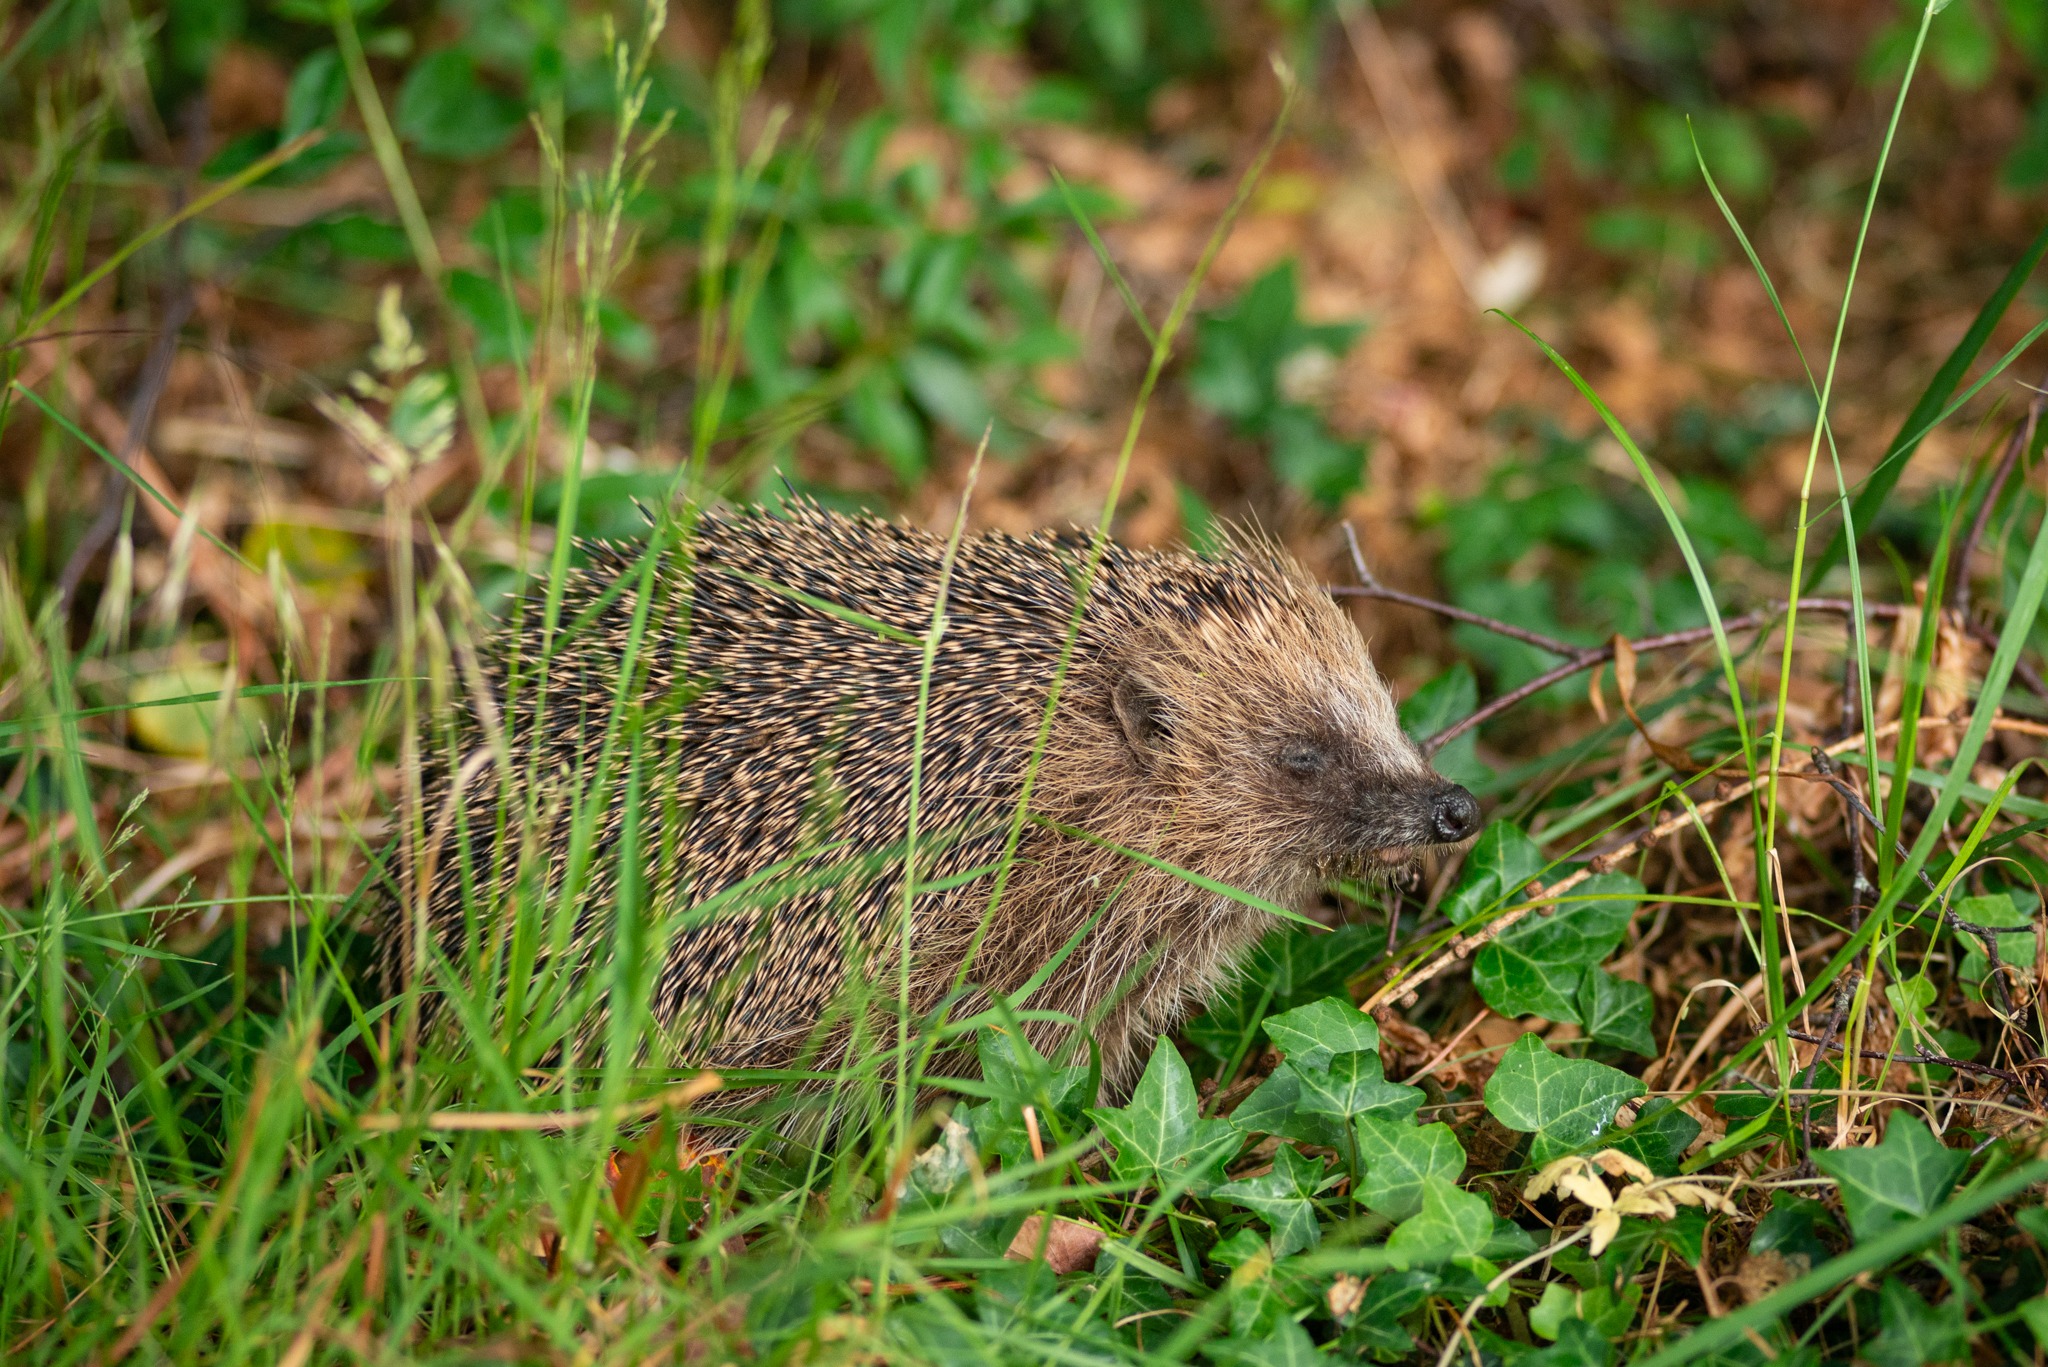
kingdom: Animalia
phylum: Chordata
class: Mammalia
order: Erinaceomorpha
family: Erinaceidae
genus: Erinaceus
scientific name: Erinaceus europaeus
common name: Pindsvin
